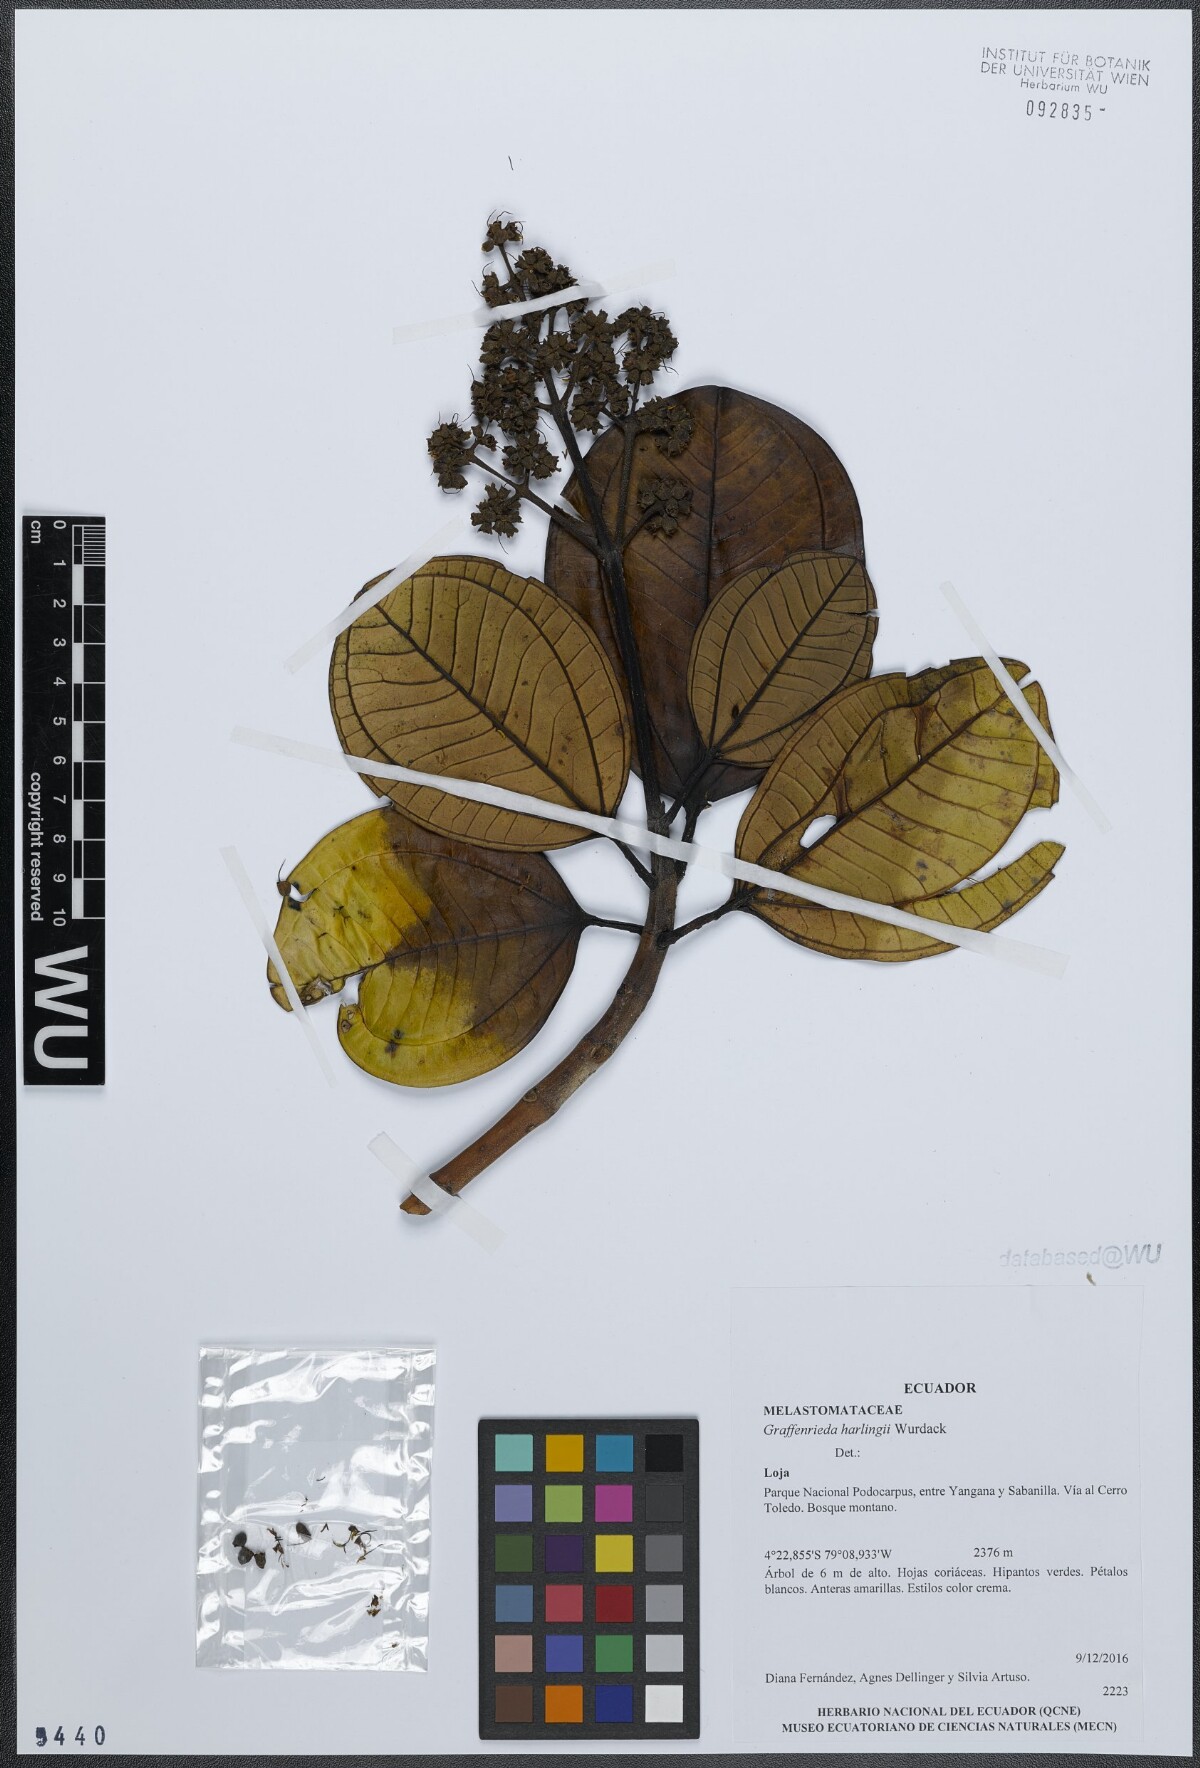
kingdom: Plantae
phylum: Tracheophyta
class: Magnoliopsida
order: Myrtales
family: Melastomataceae
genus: Graffenrieda
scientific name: Graffenrieda harlingii
